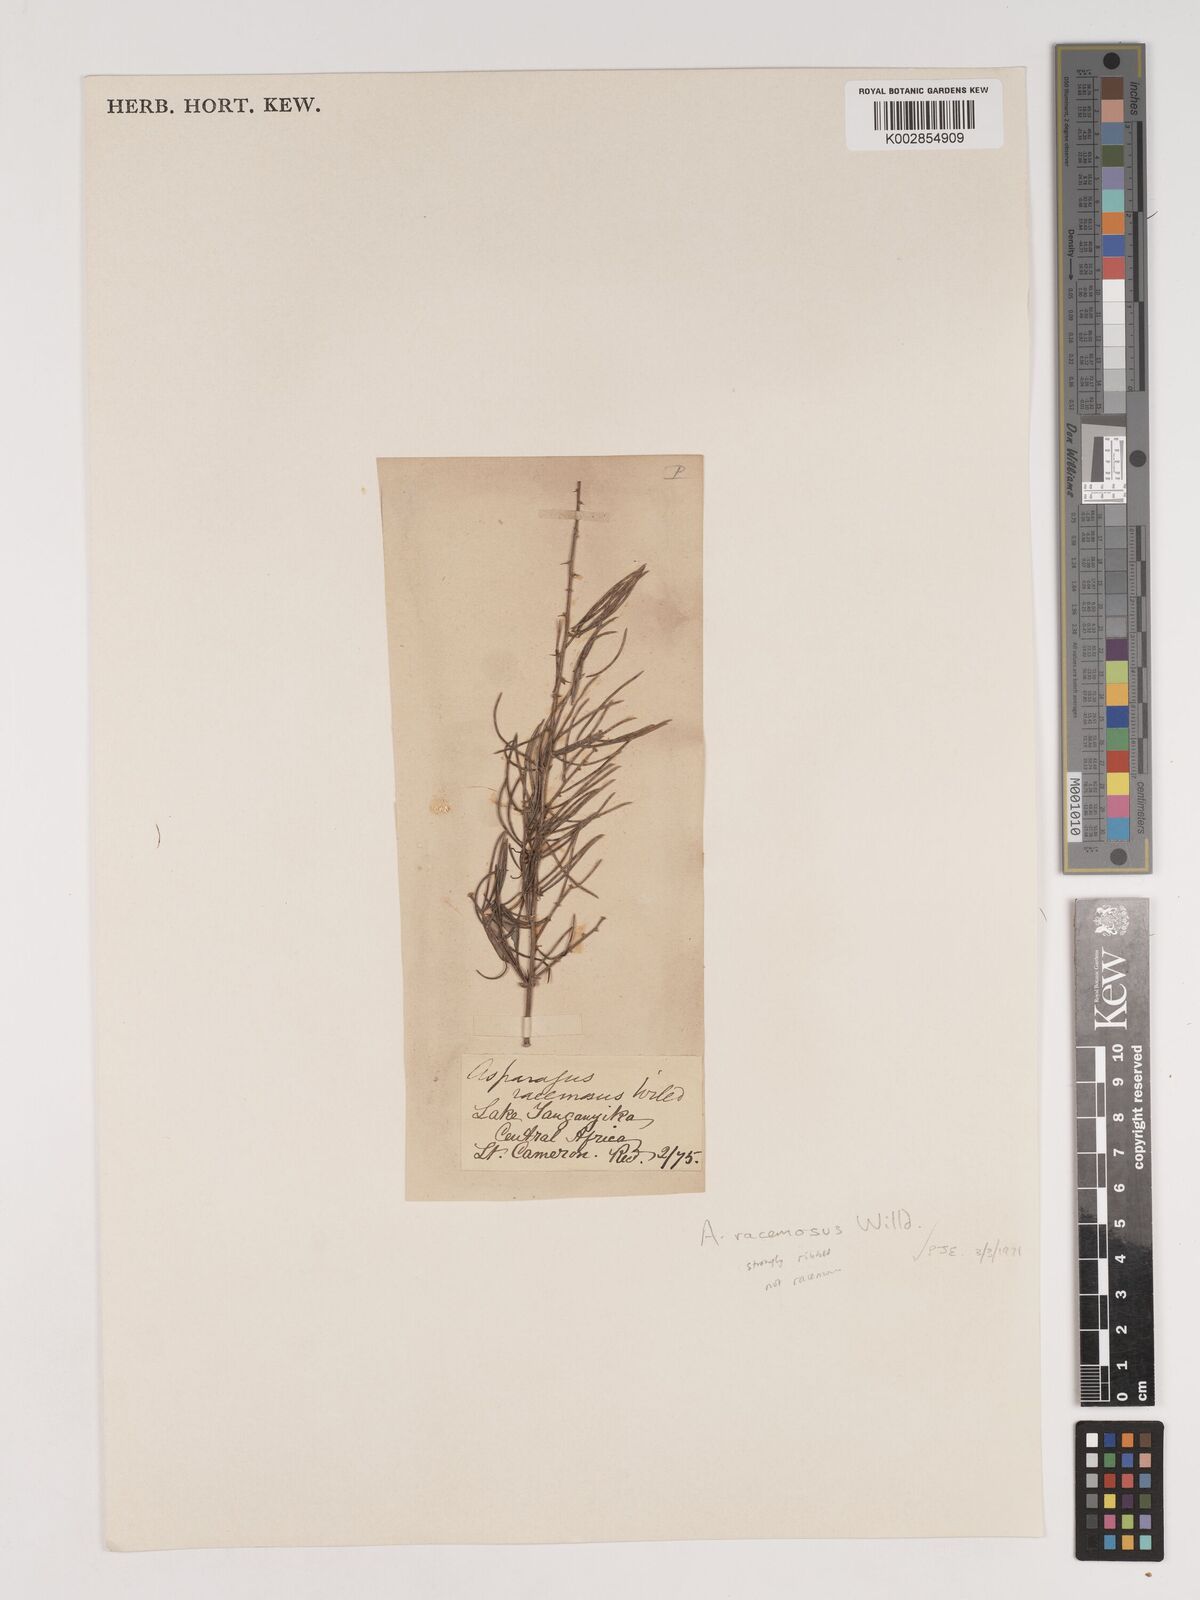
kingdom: Plantae
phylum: Tracheophyta
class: Liliopsida
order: Asparagales
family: Asparagaceae
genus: Asparagus
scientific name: Asparagus racemosus
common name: Asparagus-fern
